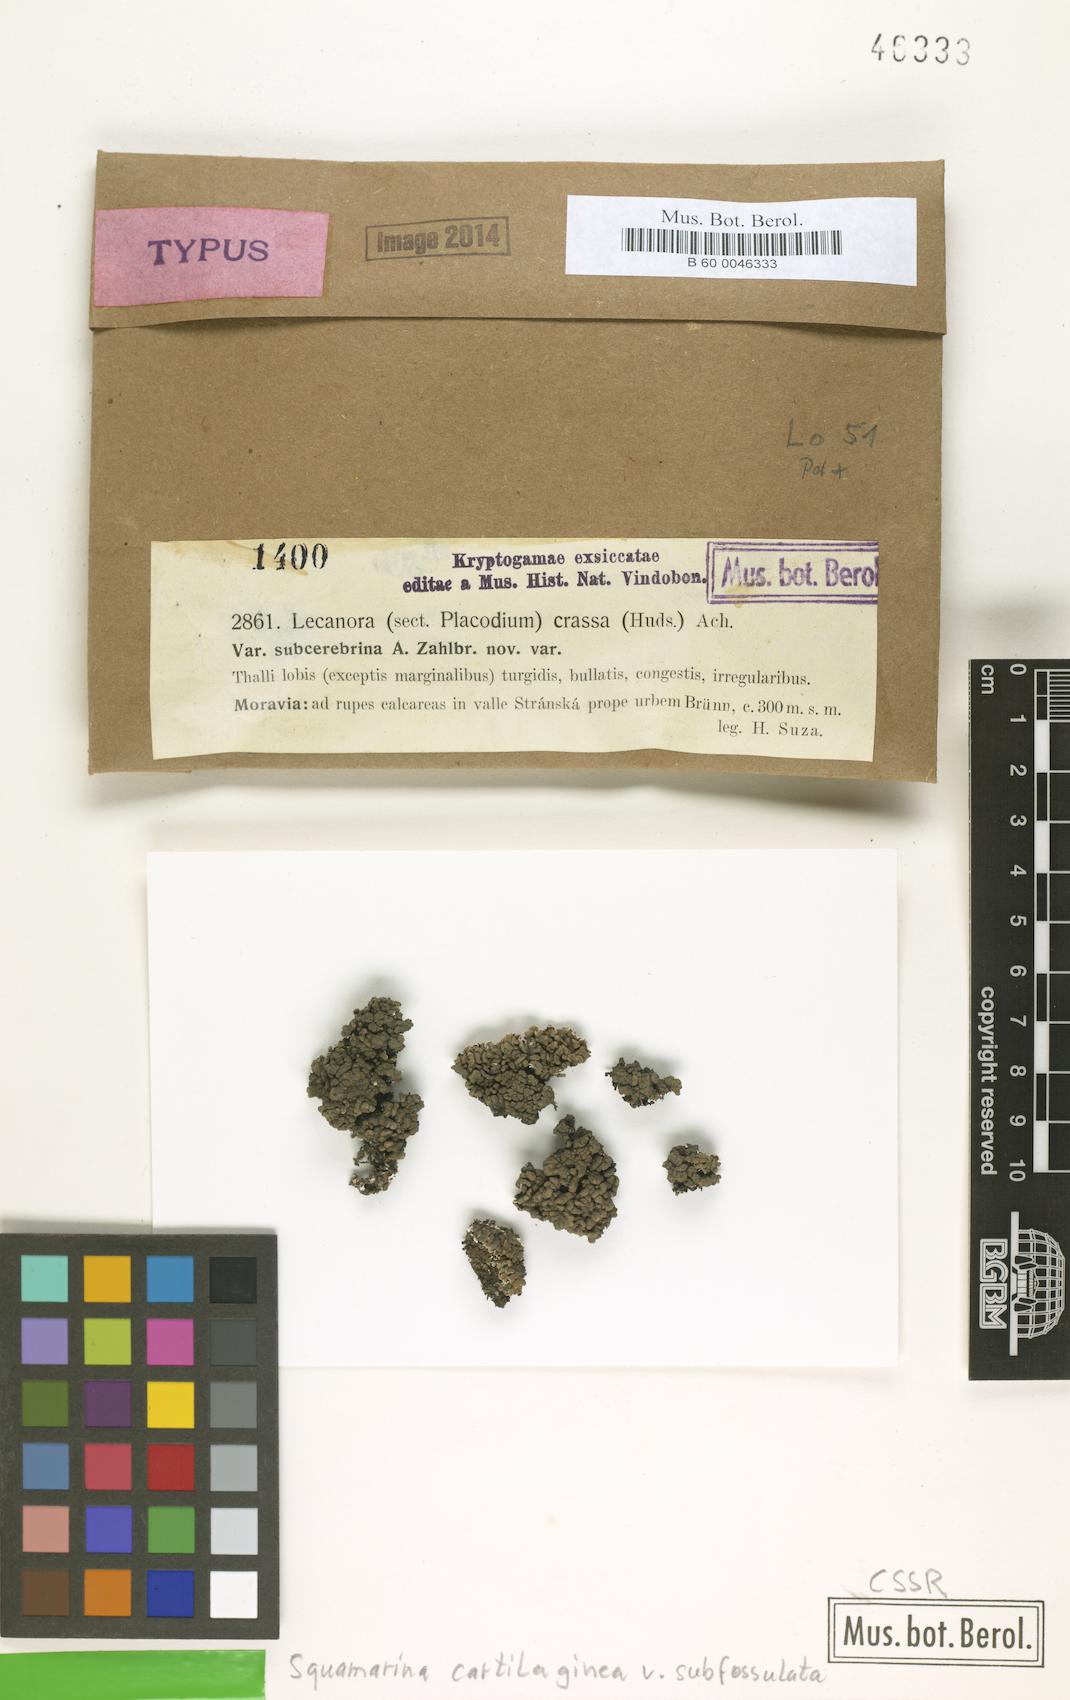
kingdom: Fungi
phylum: Ascomycota
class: Lecanoromycetes
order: Lecanorales
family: Stereocaulaceae
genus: Squamarina
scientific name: Squamarina cartilaginea
